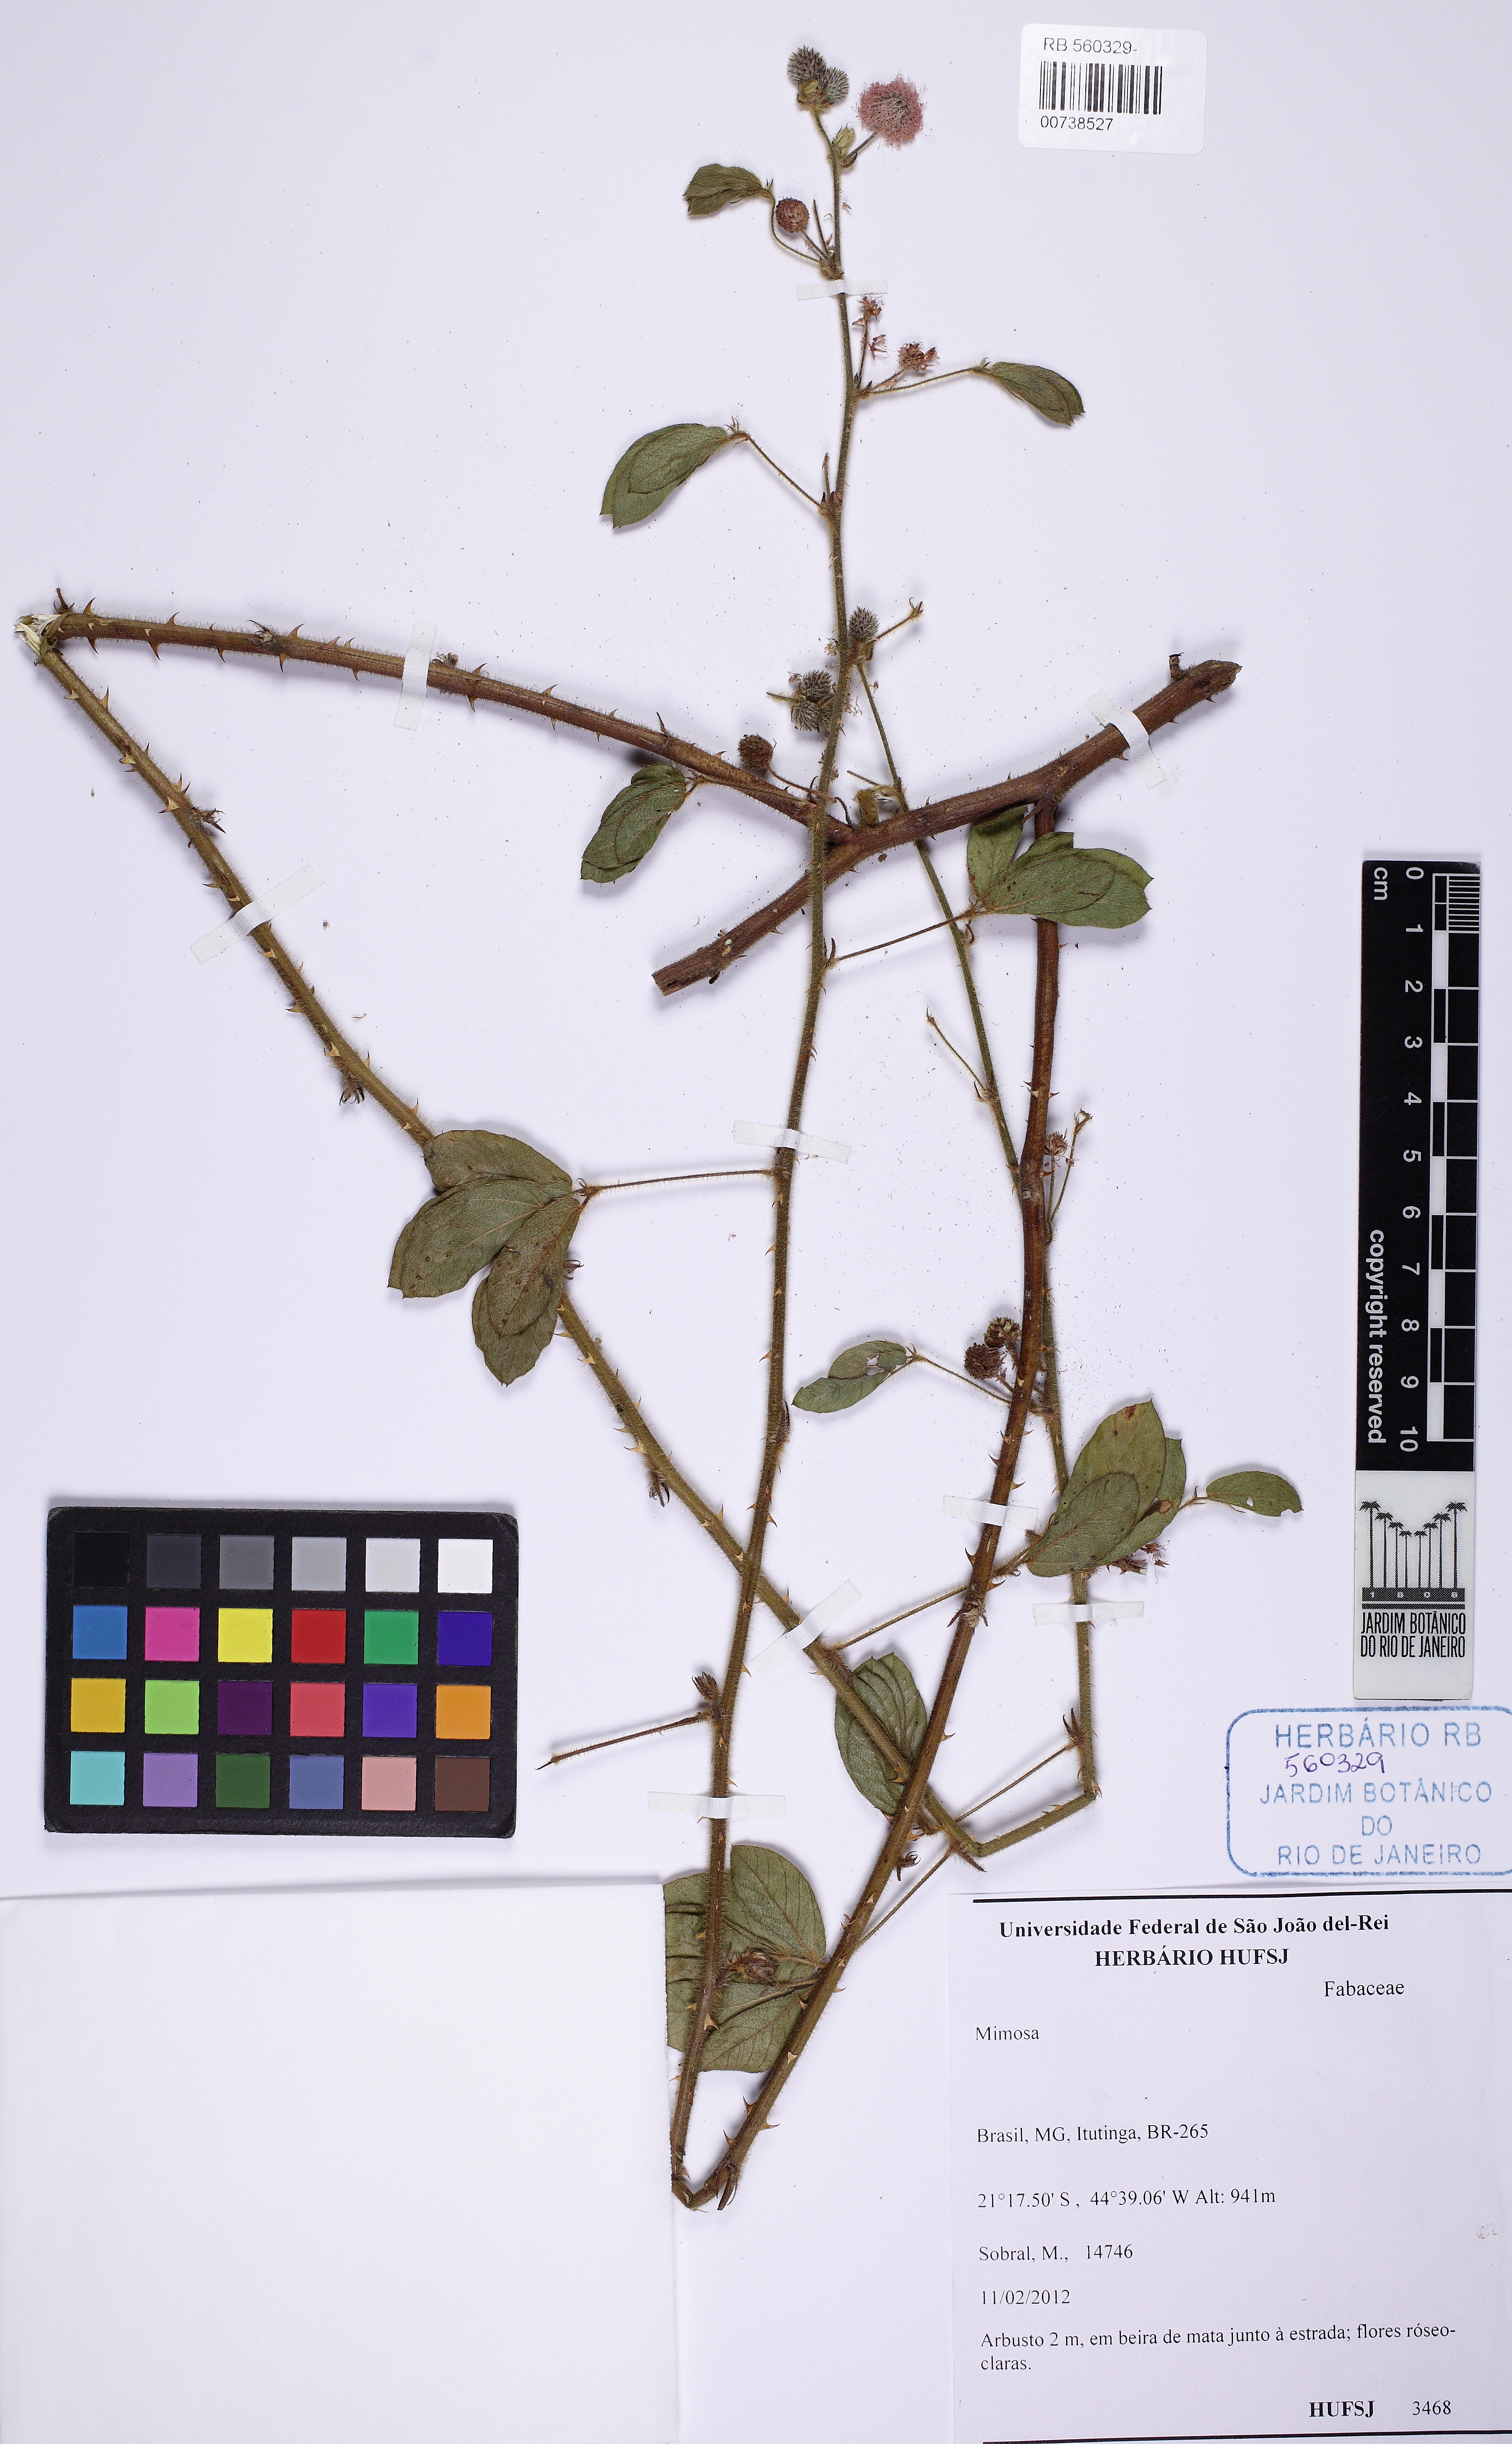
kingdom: Plantae
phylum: Tracheophyta
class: Magnoliopsida
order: Fabales
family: Fabaceae
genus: Mimosa
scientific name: Mimosa sensitiva
